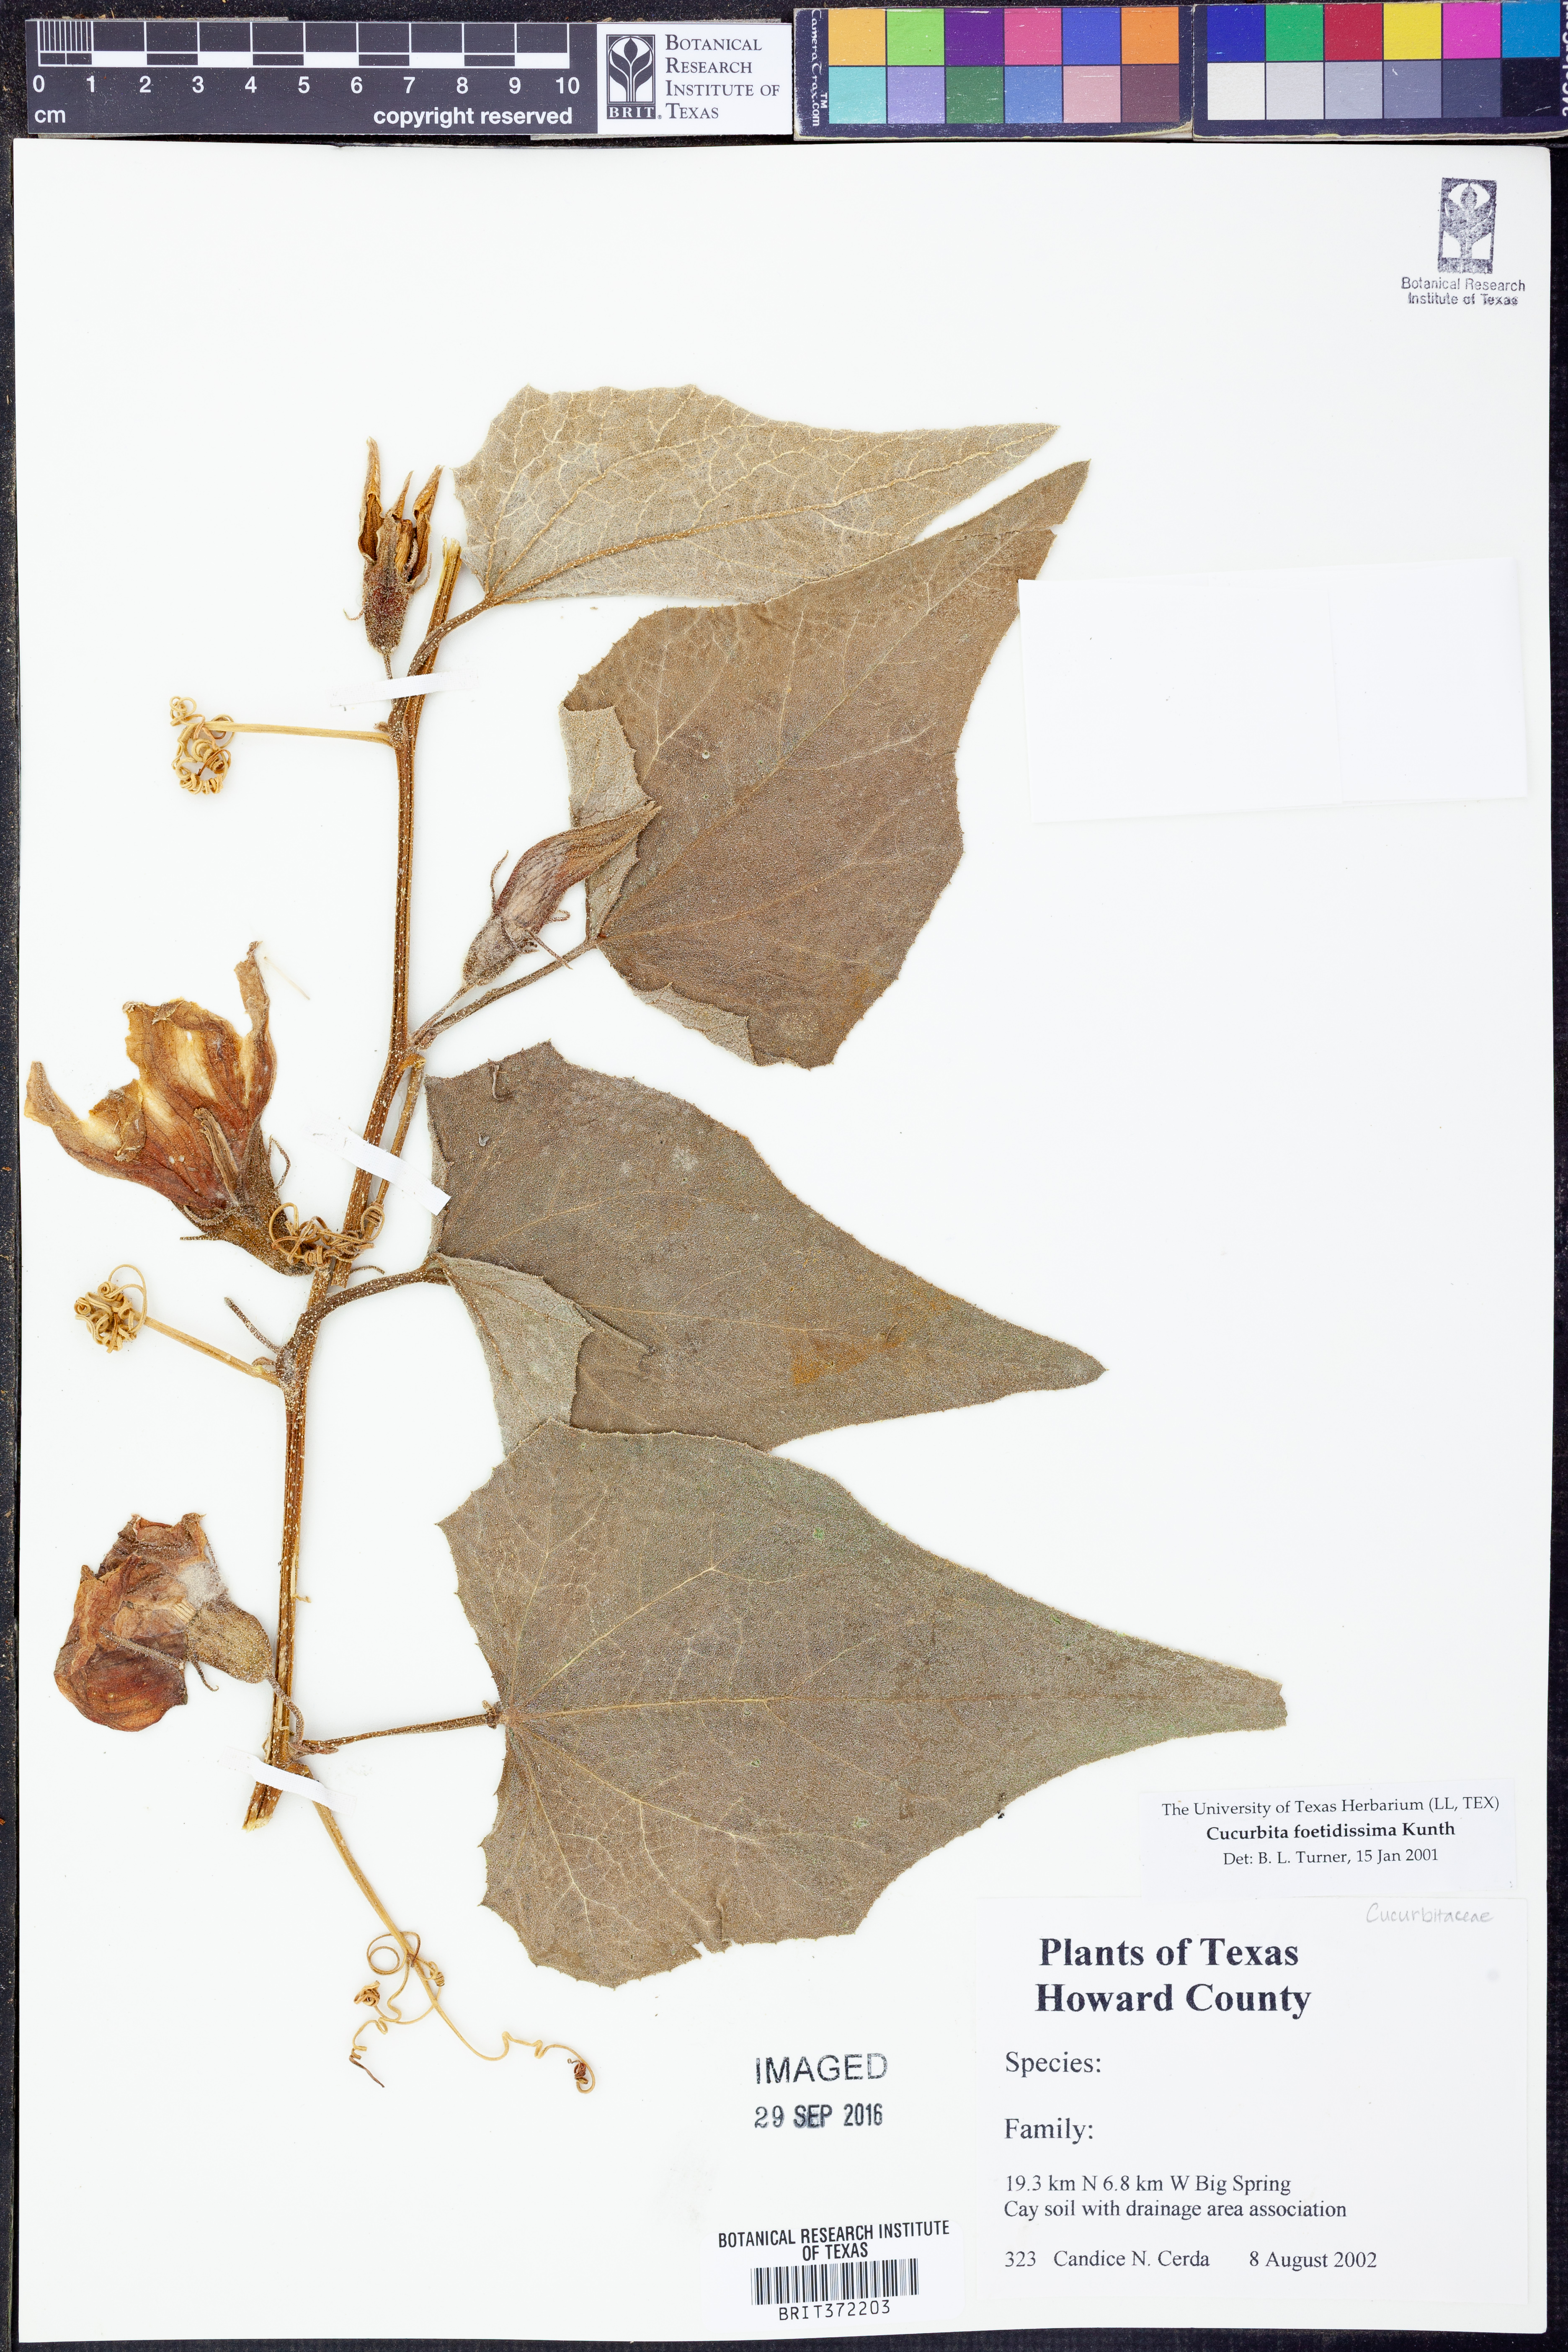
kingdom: Plantae
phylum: Tracheophyta
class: Magnoliopsida
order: Cucurbitales
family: Cucurbitaceae
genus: Cucurbita
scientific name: Cucurbita foetidissima
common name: Buffalo gourd
